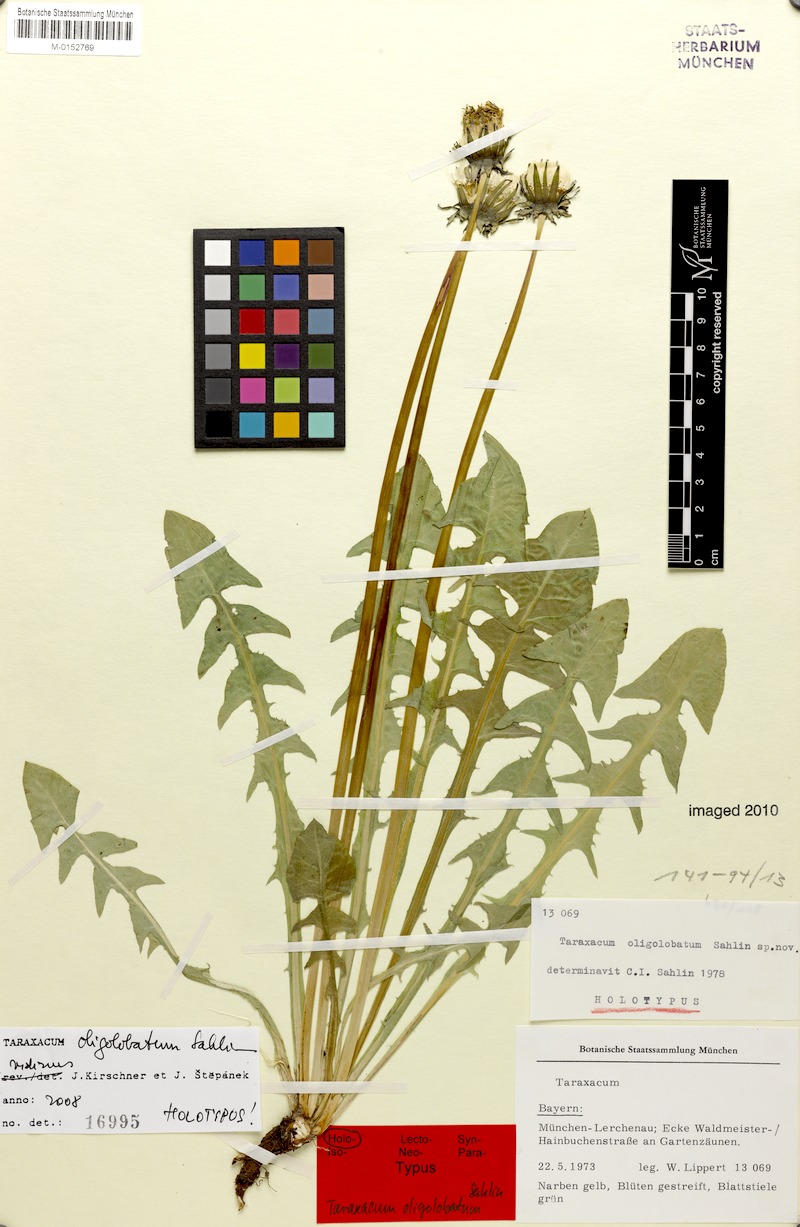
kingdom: Plantae
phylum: Tracheophyta
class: Magnoliopsida
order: Asterales
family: Asteraceae
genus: Taraxacum
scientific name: Taraxacum oligolobatum
